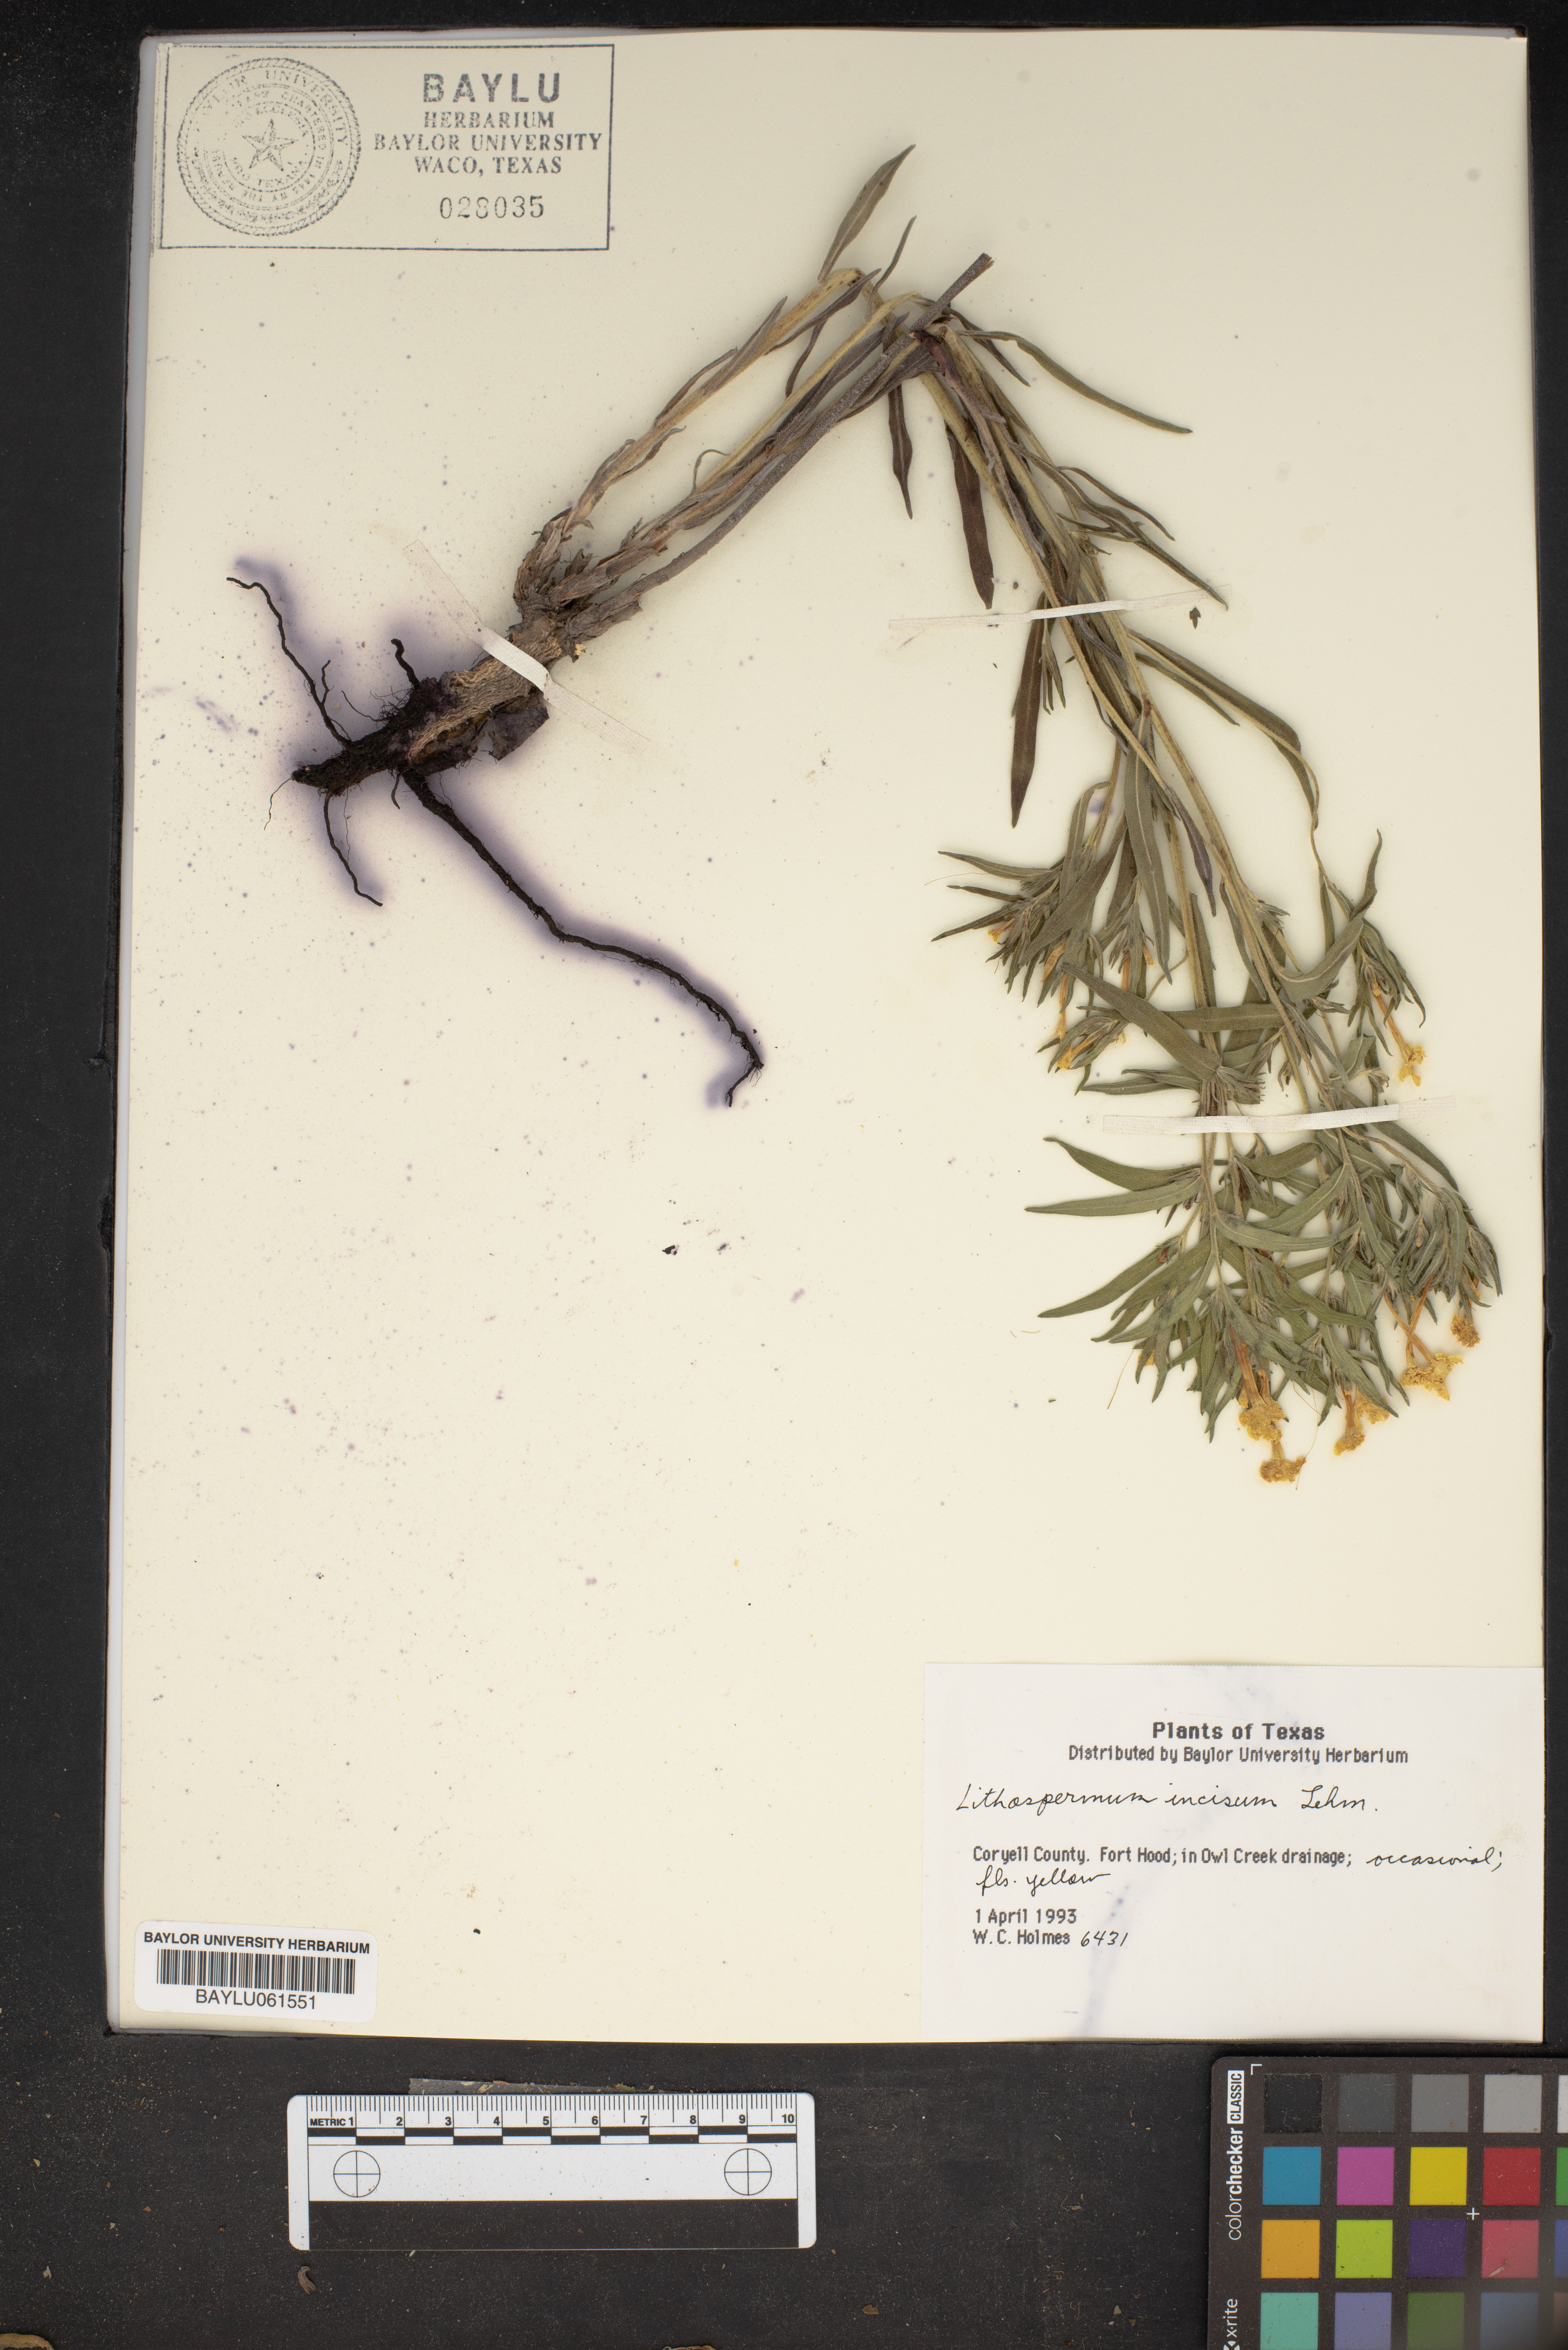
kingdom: Plantae
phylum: Tracheophyta
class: Magnoliopsida
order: Boraginales
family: Boraginaceae
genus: Lithospermum
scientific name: Lithospermum incisum
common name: Fringed gromwell
